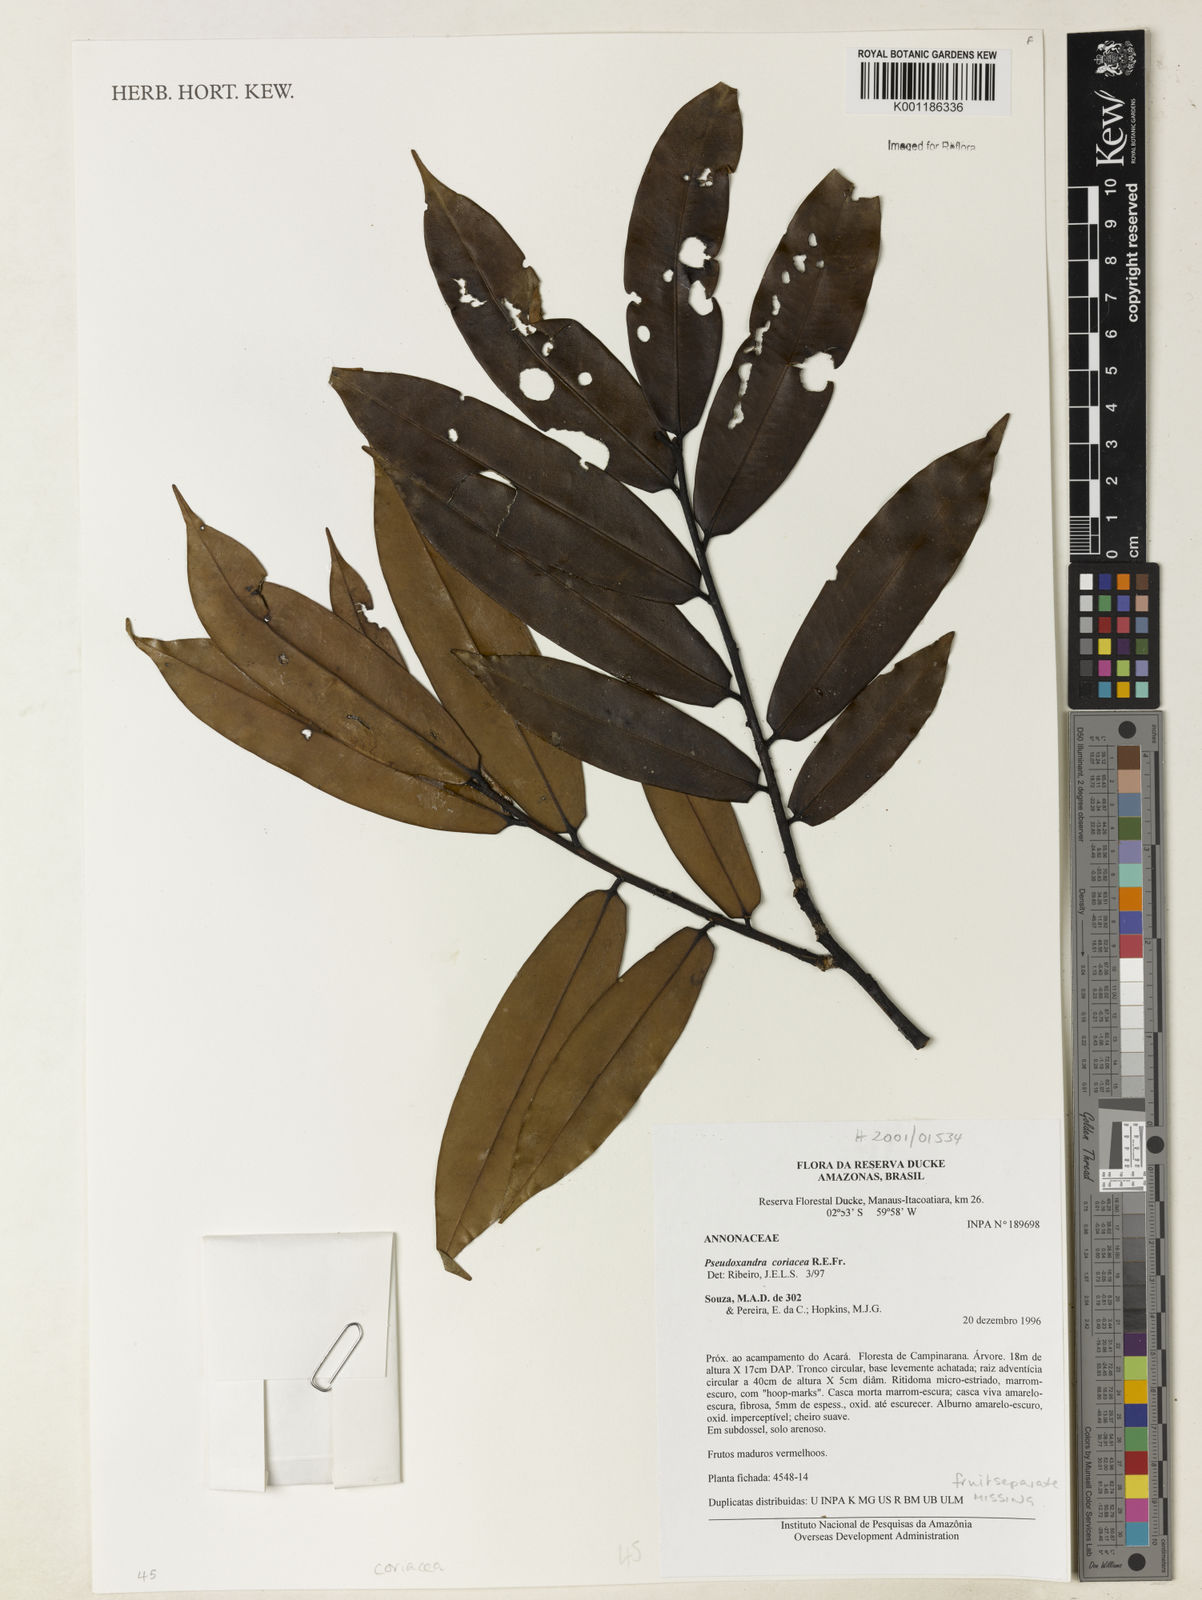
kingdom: Plantae
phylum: Tracheophyta
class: Magnoliopsida
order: Magnoliales
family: Annonaceae
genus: Pseudoxandra
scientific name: Pseudoxandra leiophylla
